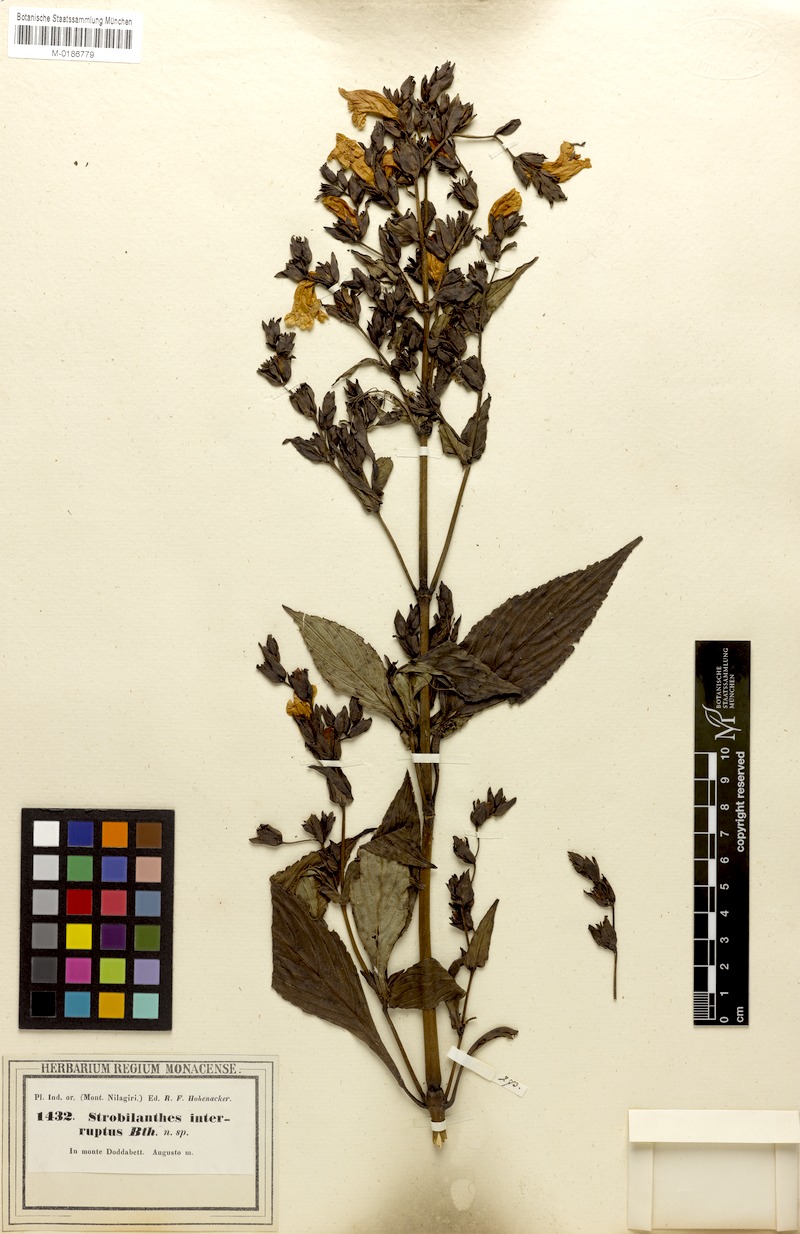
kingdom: Plantae
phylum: Tracheophyta
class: Magnoliopsida
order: Lamiales
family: Acanthaceae
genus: Strobilanthes
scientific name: Strobilanthes sexennis
